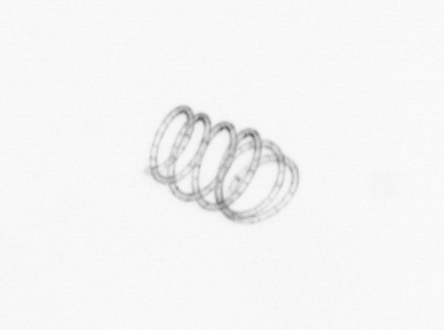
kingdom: Chromista
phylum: Ochrophyta
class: Bacillariophyceae
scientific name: Bacillariophyceae
